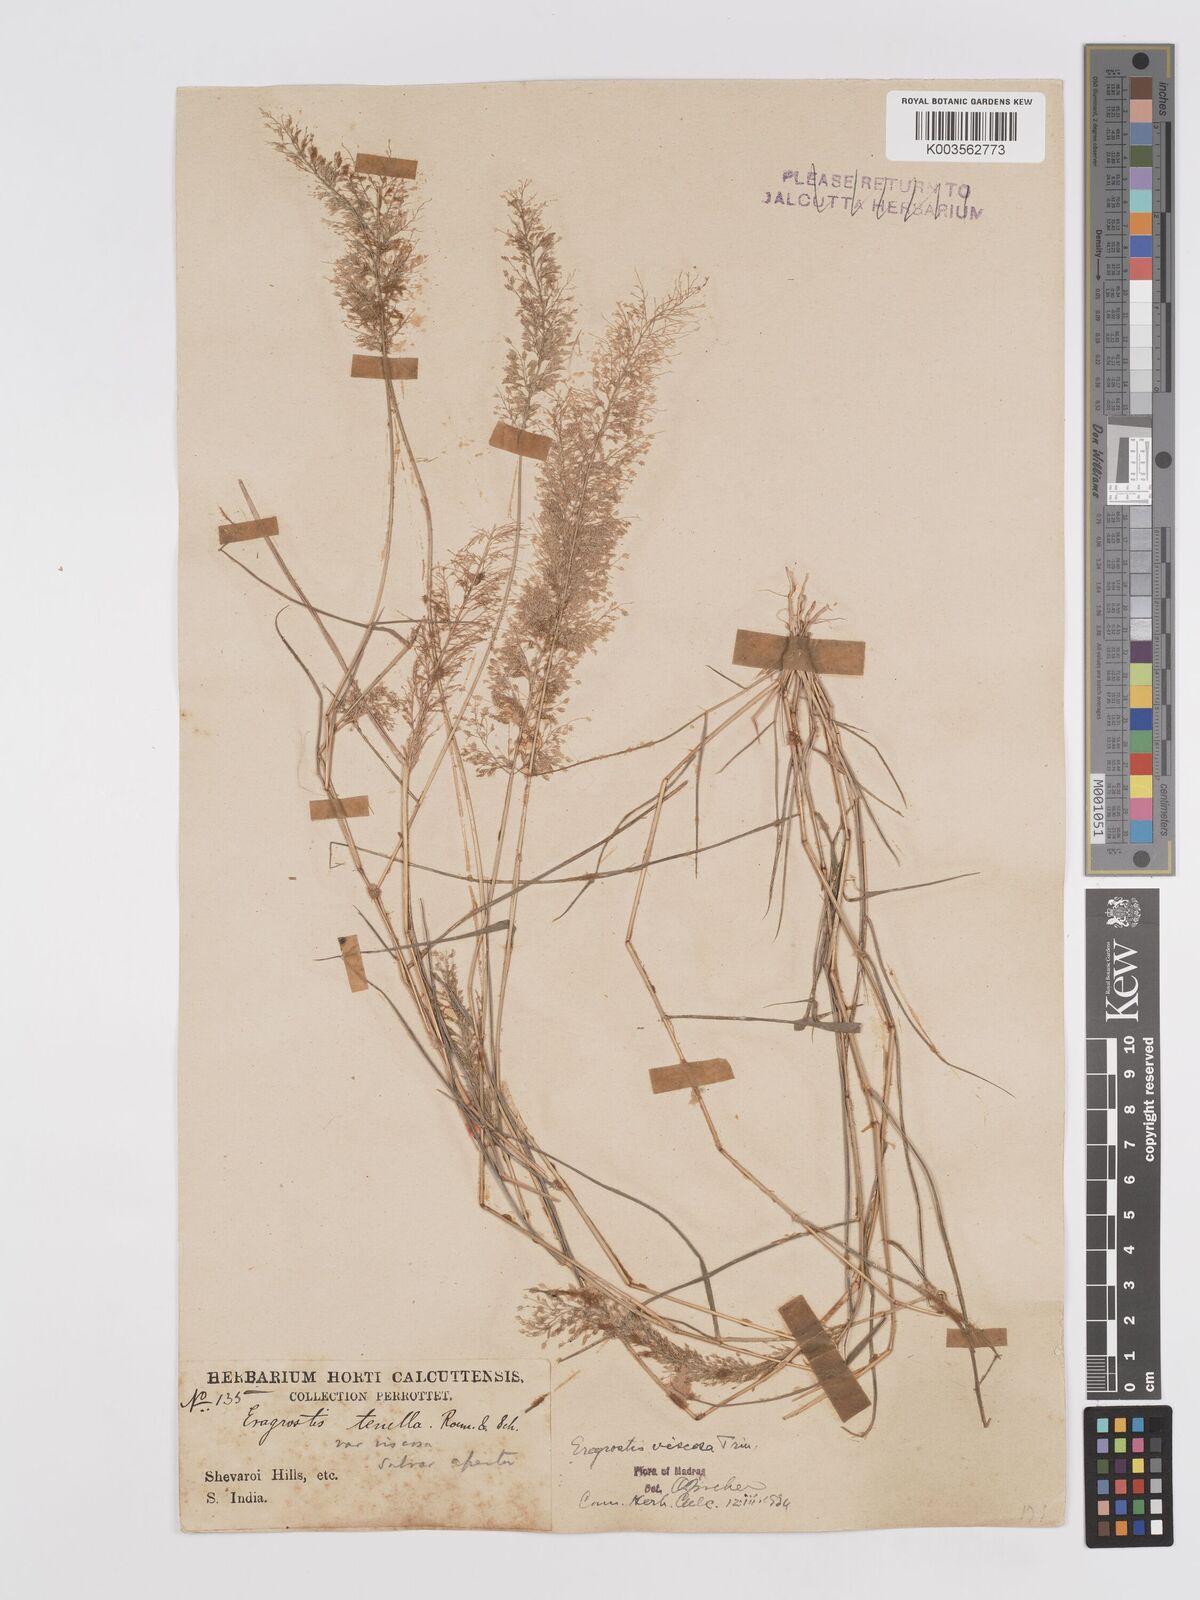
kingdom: Plantae
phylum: Tracheophyta
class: Liliopsida
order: Poales
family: Poaceae
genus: Eragrostis
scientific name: Eragrostis viscosa
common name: Sticky love grass
